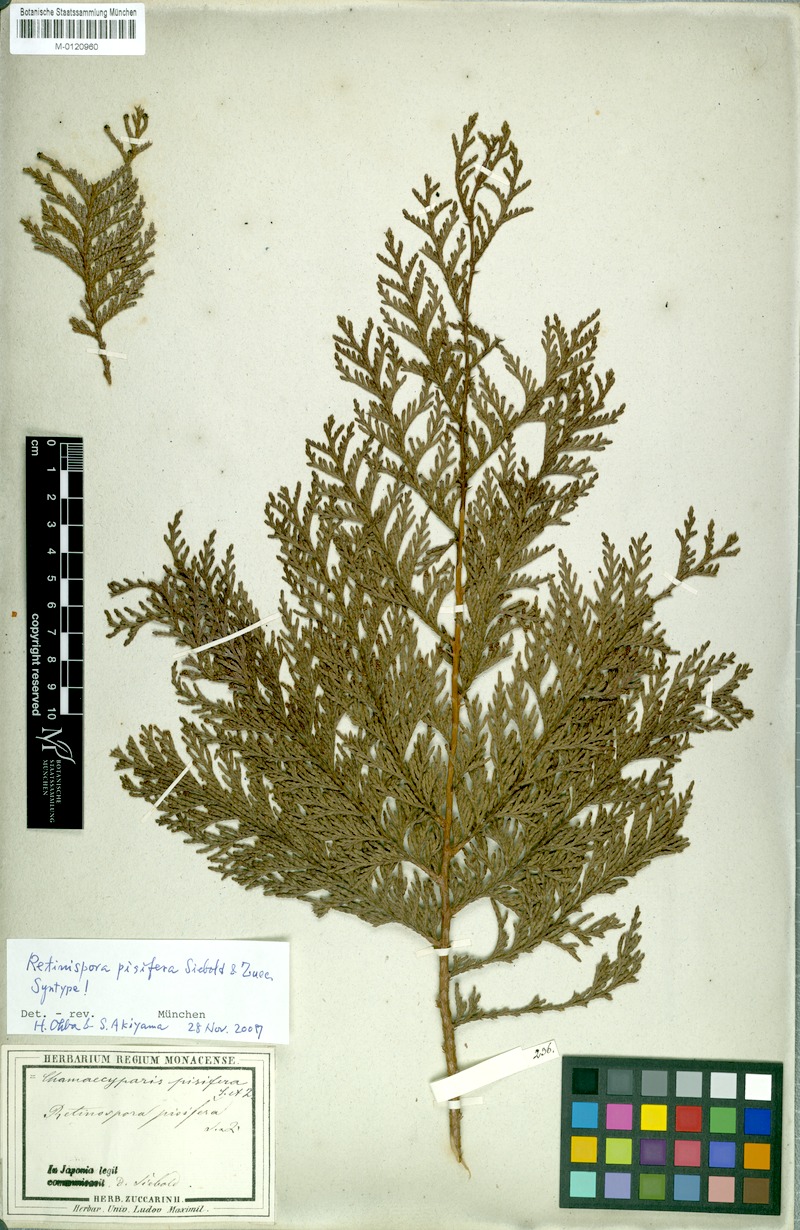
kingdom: Plantae
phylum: Tracheophyta
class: Pinopsida
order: Pinales
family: Cupressaceae
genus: Chamaecyparis
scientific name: Chamaecyparis pisifera
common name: Sawara cypress
